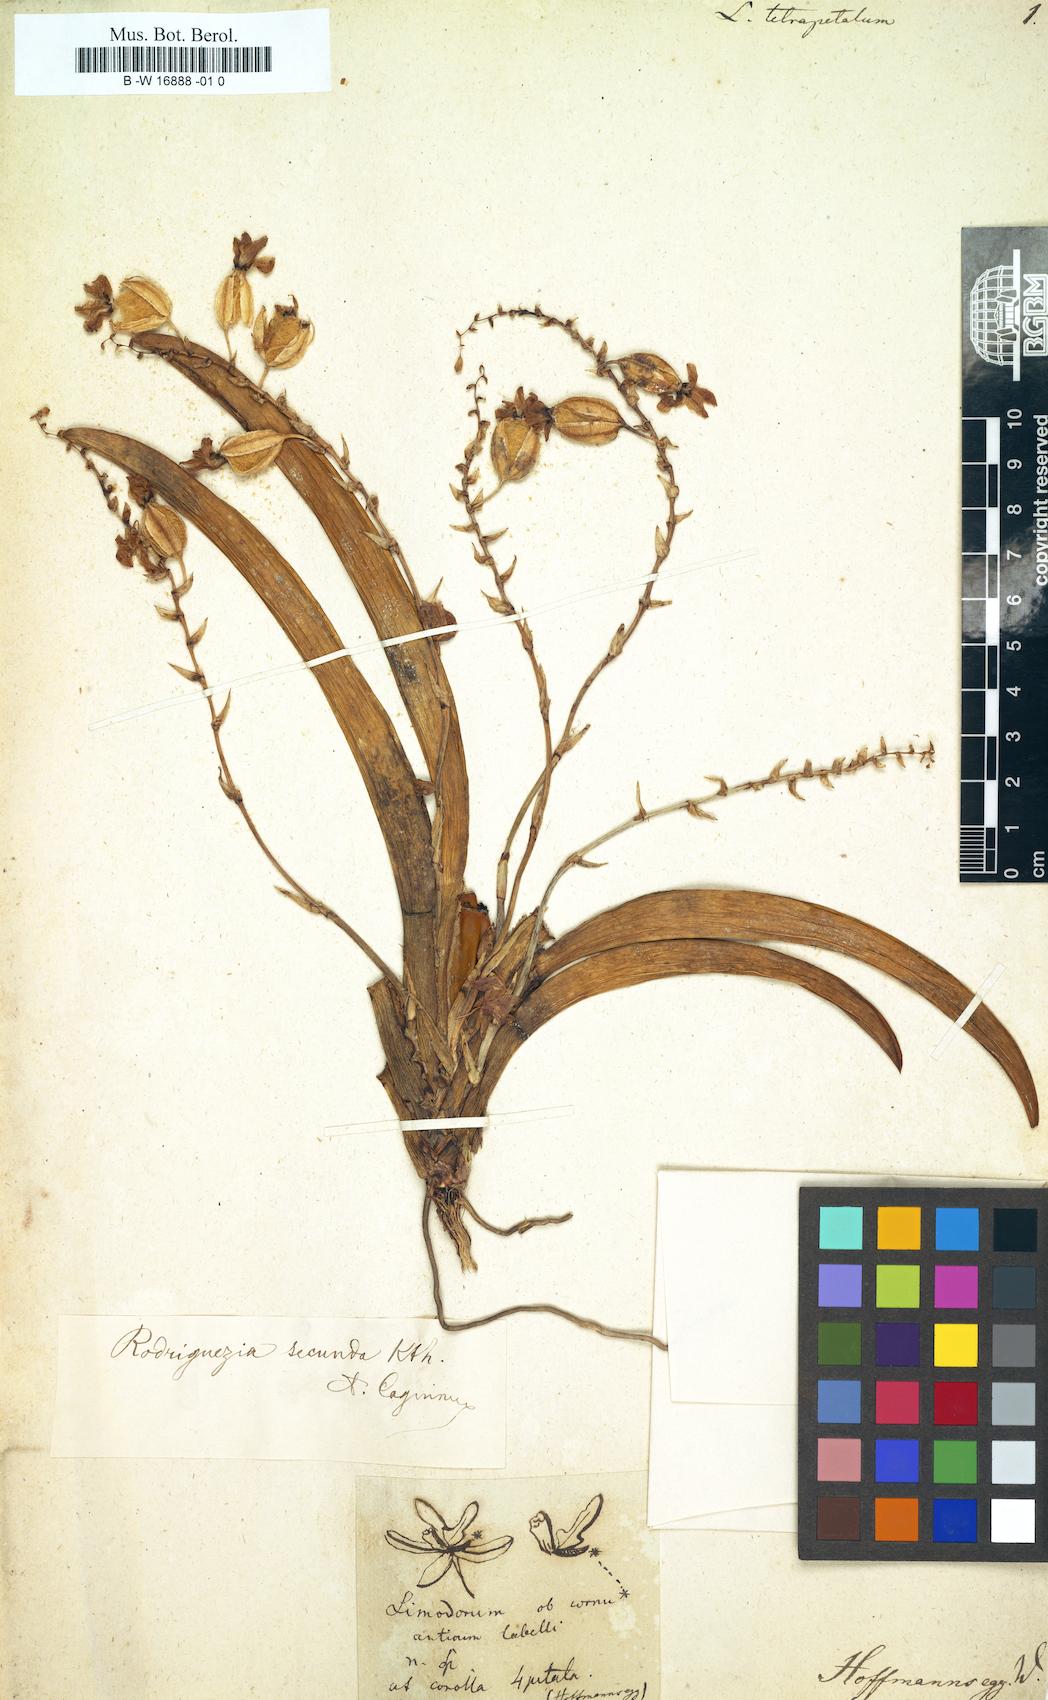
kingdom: Plantae
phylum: Tracheophyta
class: Liliopsida
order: Asparagales
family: Orchidaceae
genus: Limodorum
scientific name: Limodorum
